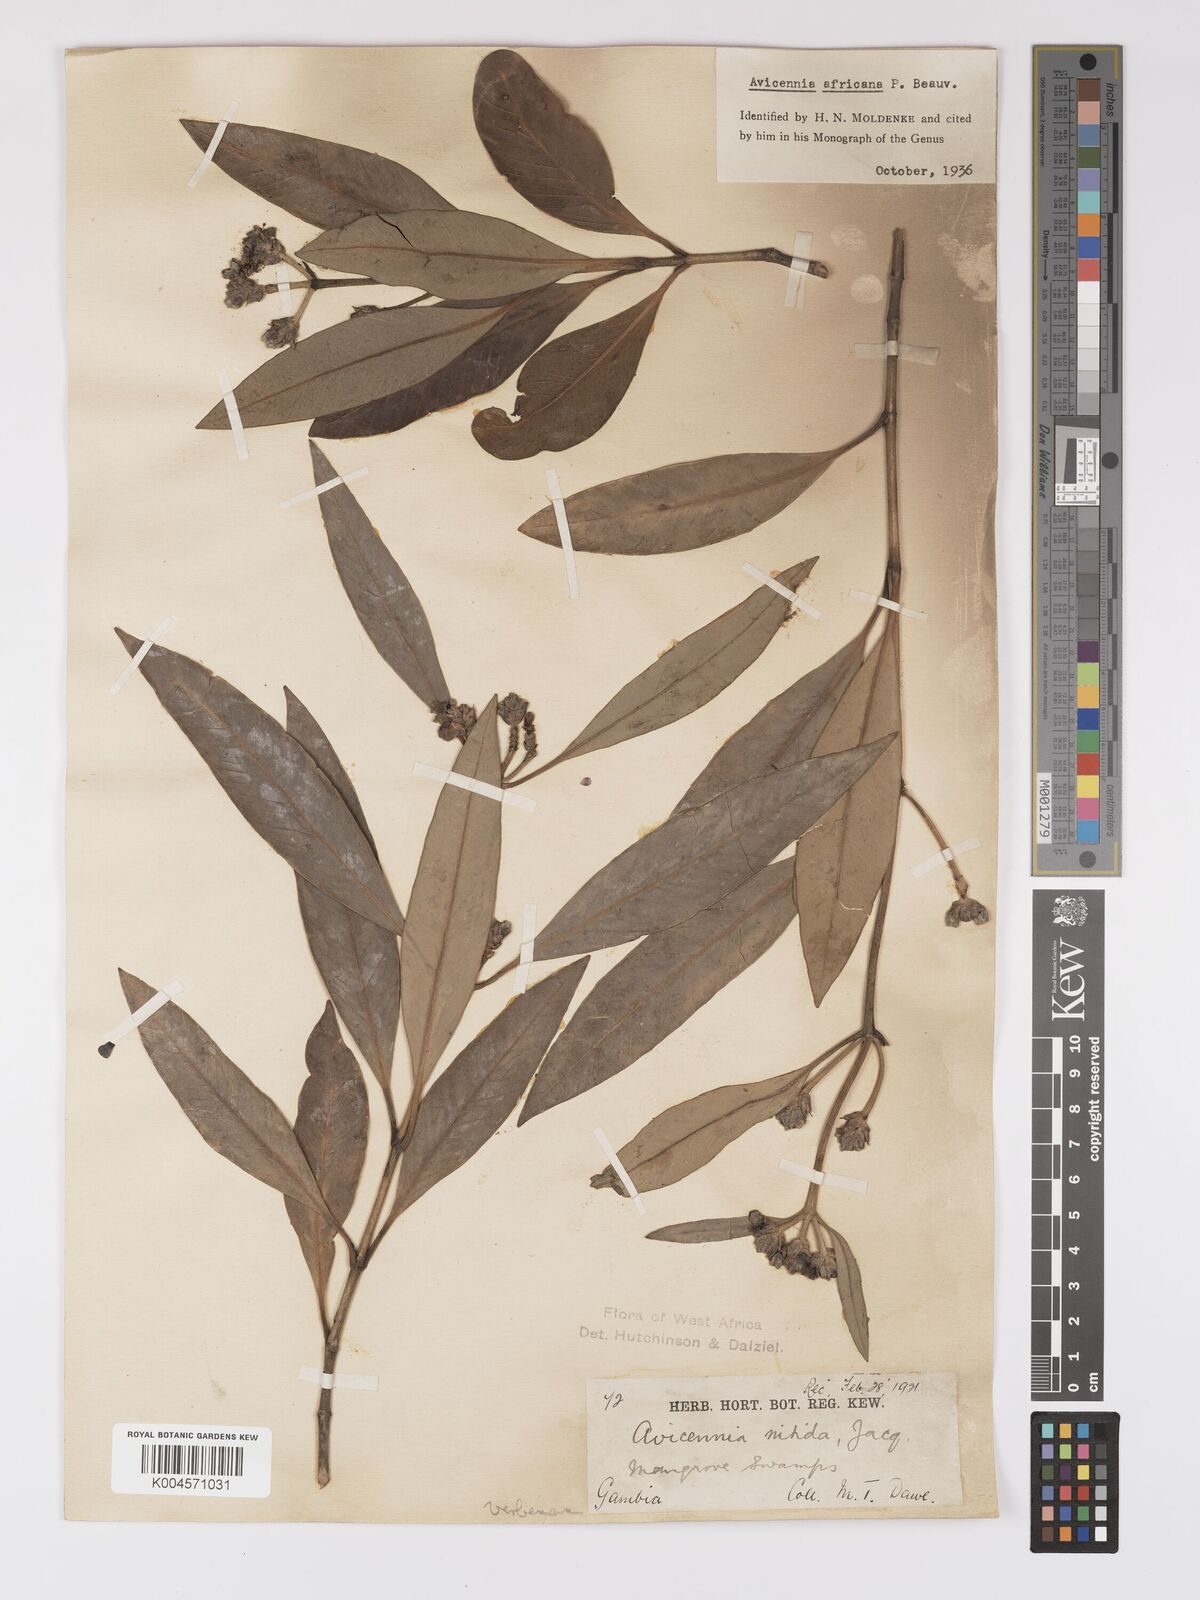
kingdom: Plantae
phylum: Tracheophyta
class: Magnoliopsida
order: Lamiales
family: Acanthaceae
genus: Avicennia
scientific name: Avicennia germinans
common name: Black mangrove
